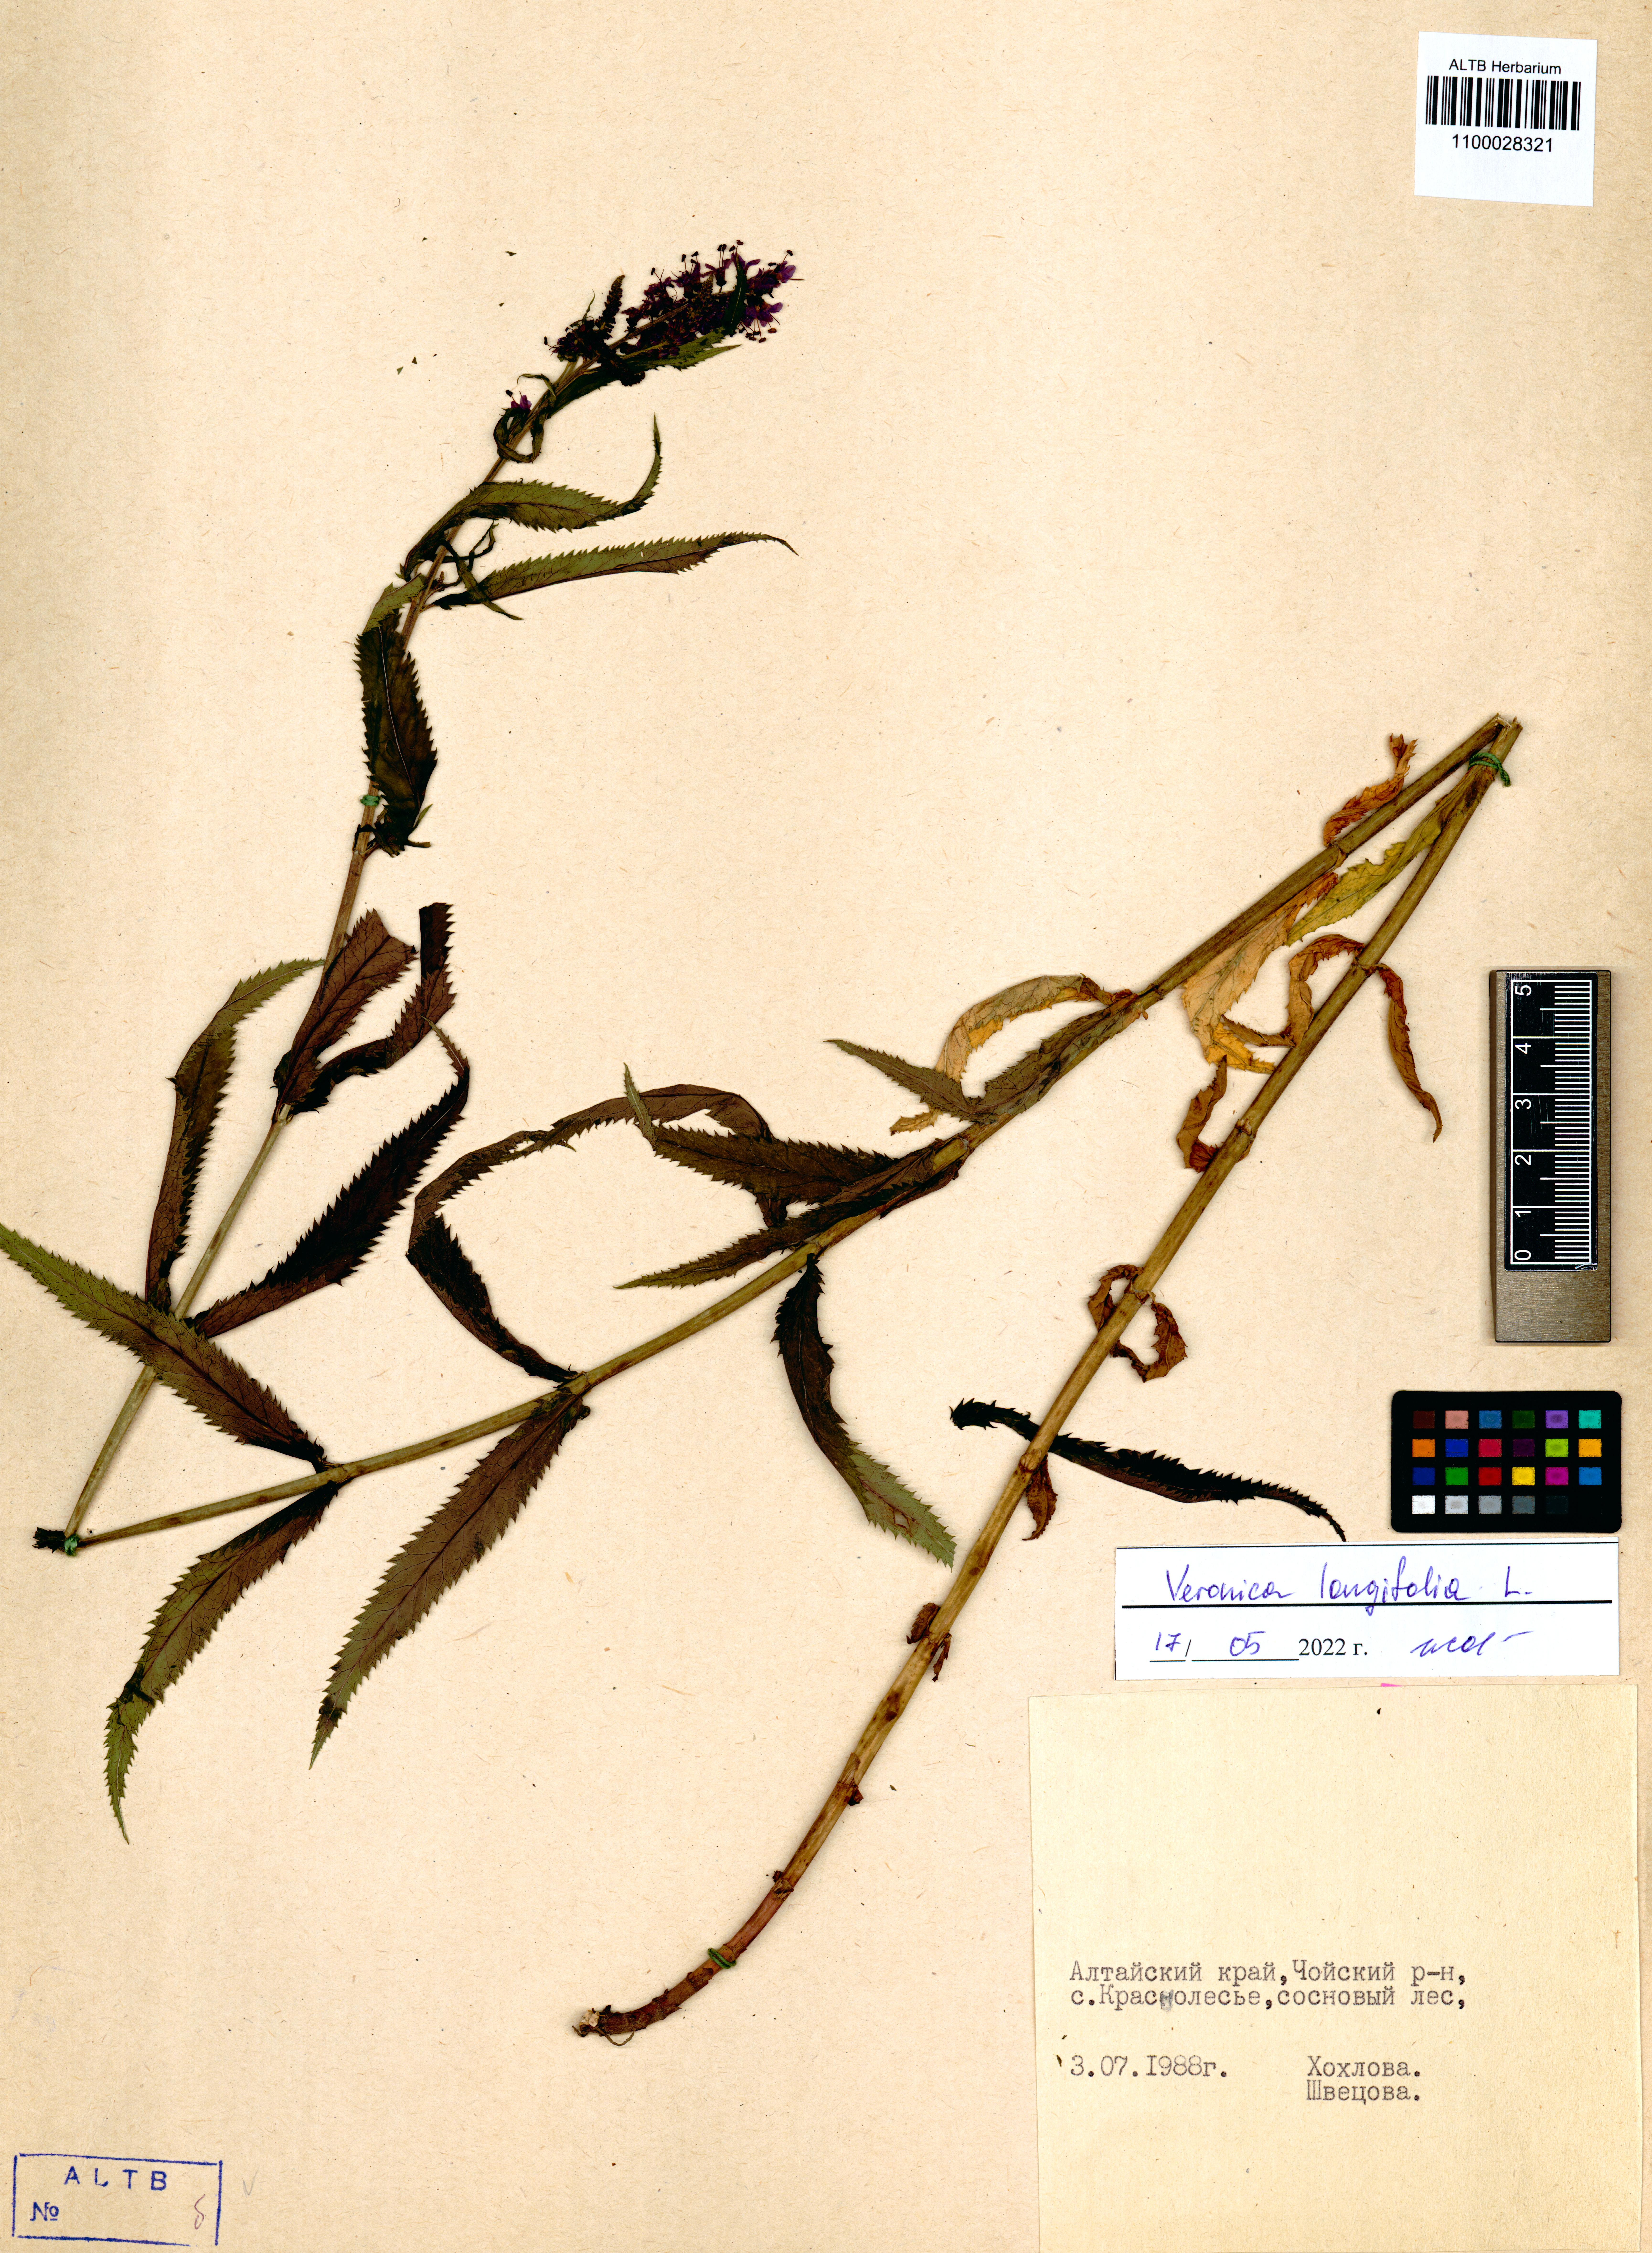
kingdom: Plantae
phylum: Tracheophyta
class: Magnoliopsida
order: Lamiales
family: Plantaginaceae
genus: Veronica
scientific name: Veronica longifolia
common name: Garden speedwell
